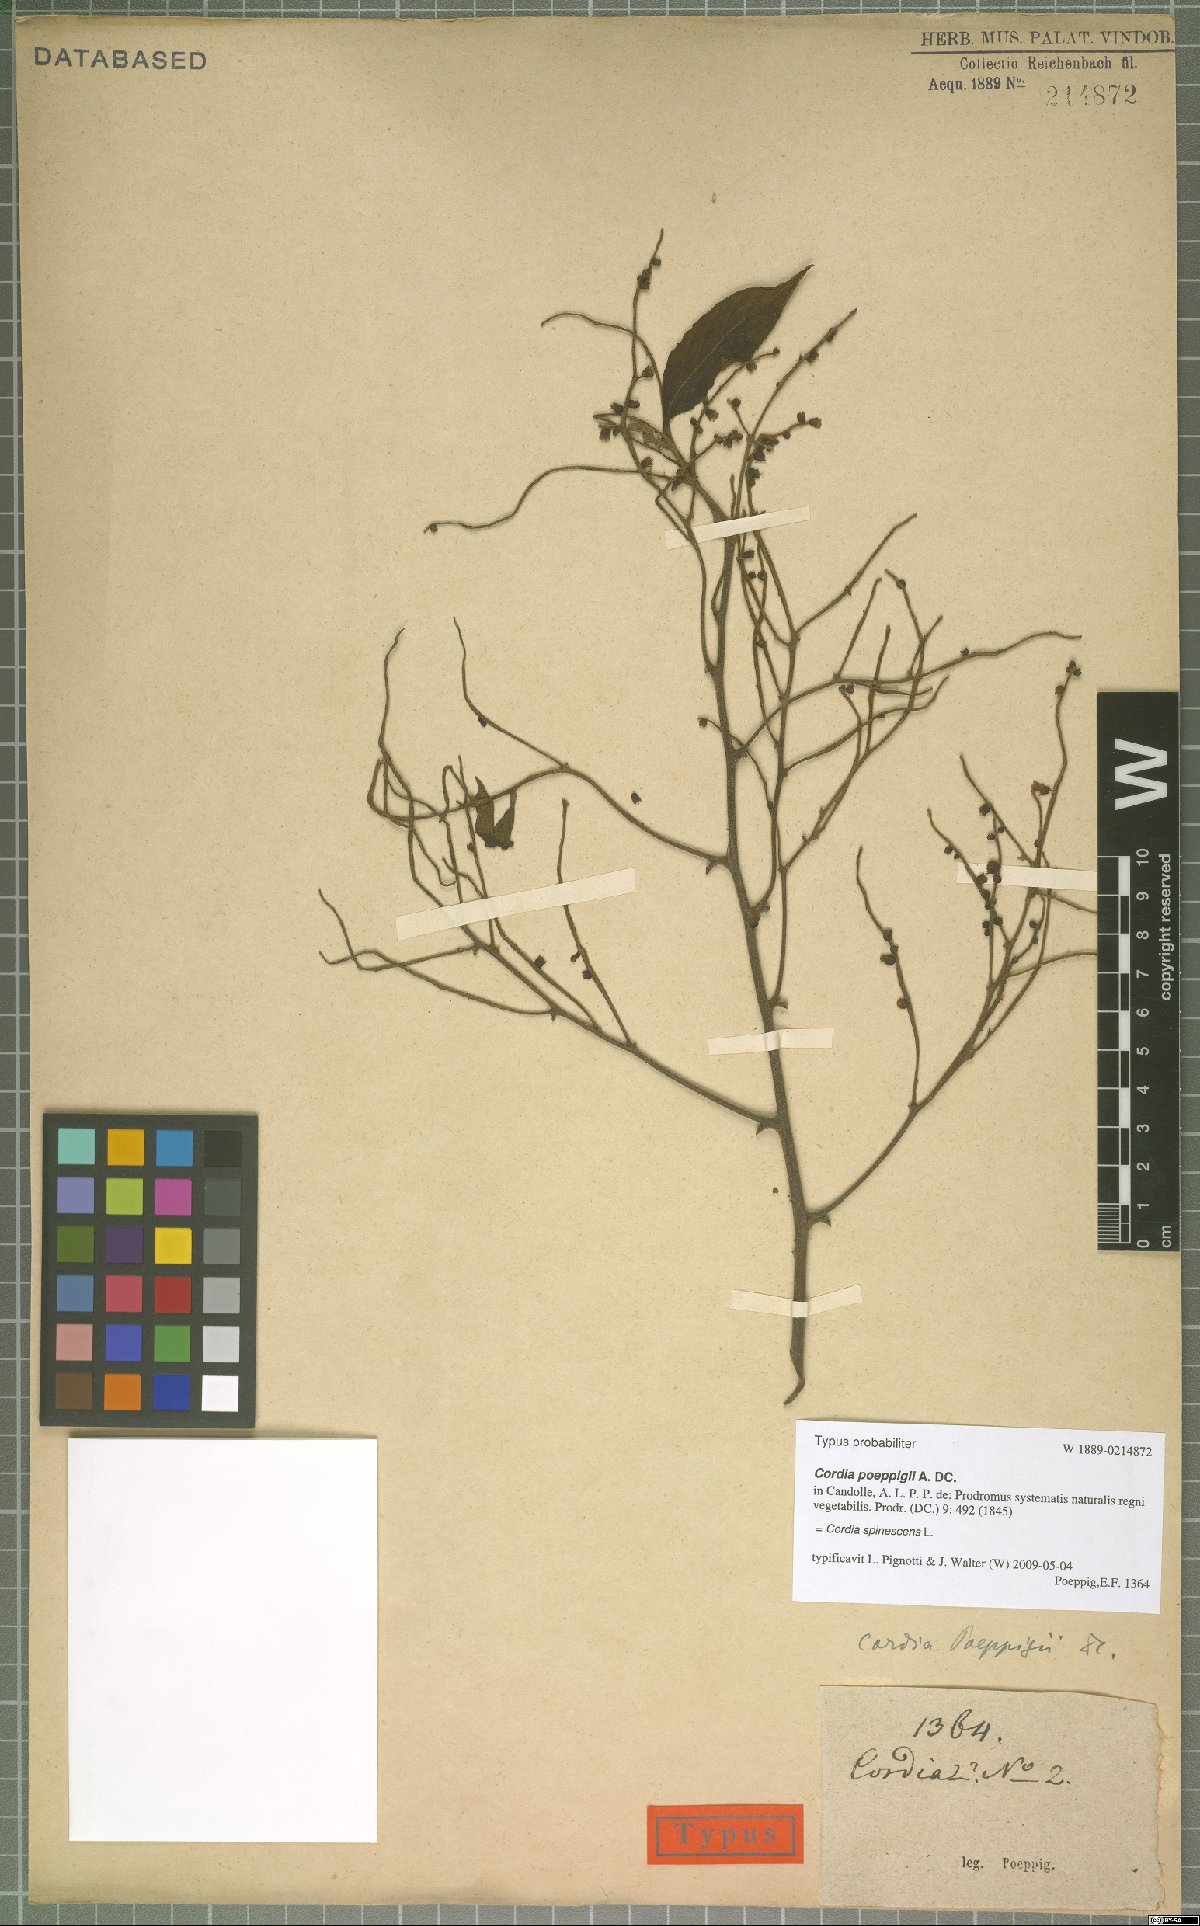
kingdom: Plantae
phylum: Tracheophyta
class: Magnoliopsida
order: Boraginales
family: Cordiaceae
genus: Varronia
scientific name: Varronia spinescens
